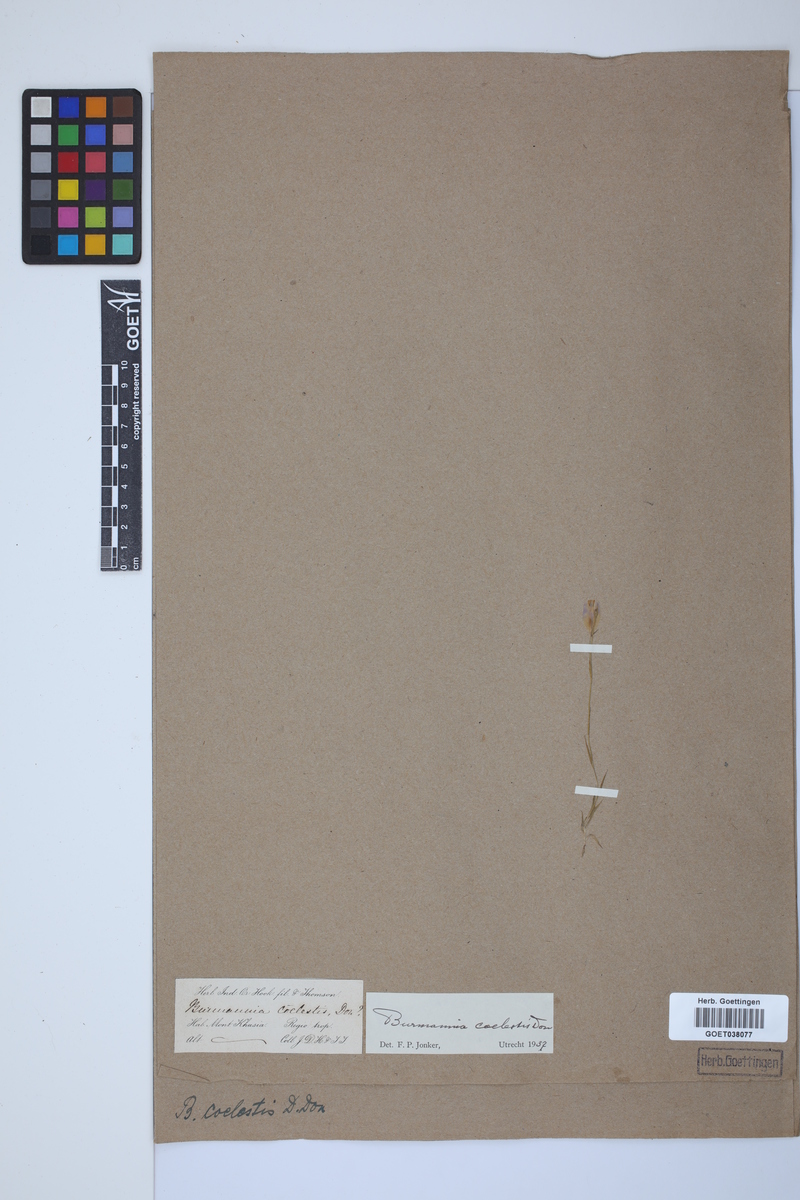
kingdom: Plantae
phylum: Tracheophyta
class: Liliopsida
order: Dioscoreales
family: Burmanniaceae
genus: Burmannia
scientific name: Burmannia coelestis
